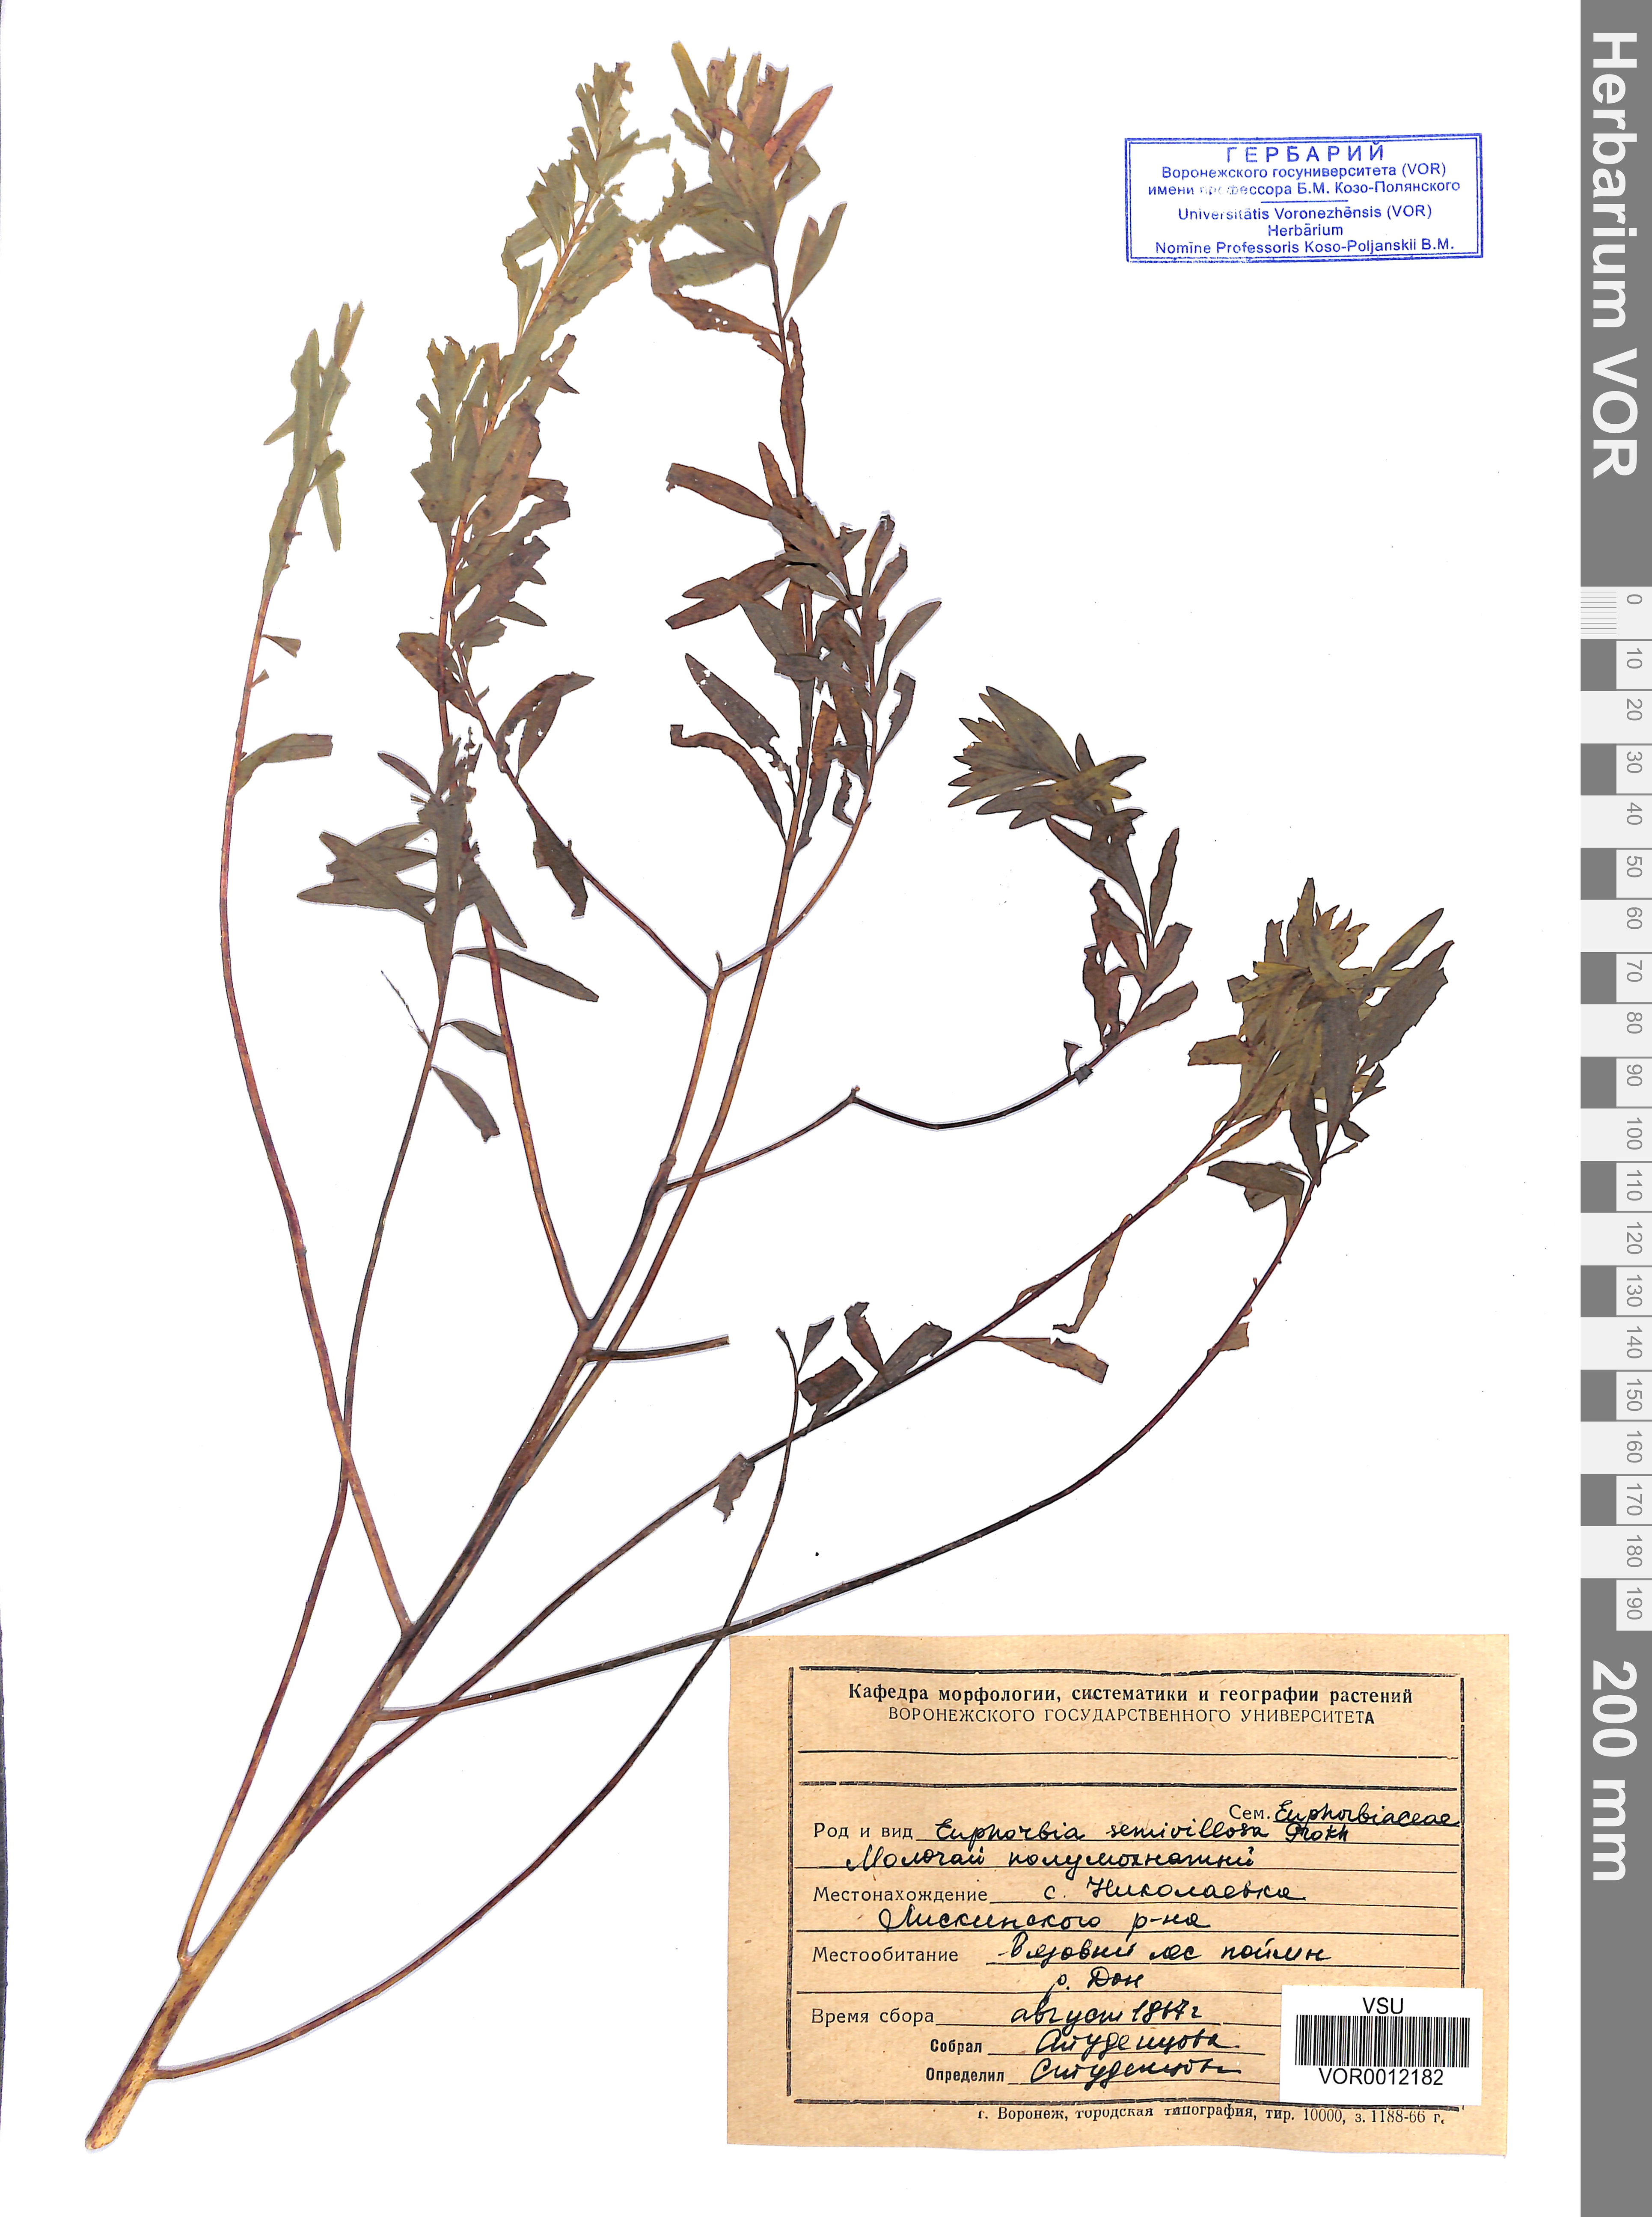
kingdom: Plantae
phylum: Tracheophyta
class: Magnoliopsida
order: Malpighiales
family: Euphorbiaceae
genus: Euphorbia
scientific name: Euphorbia semivillosa
